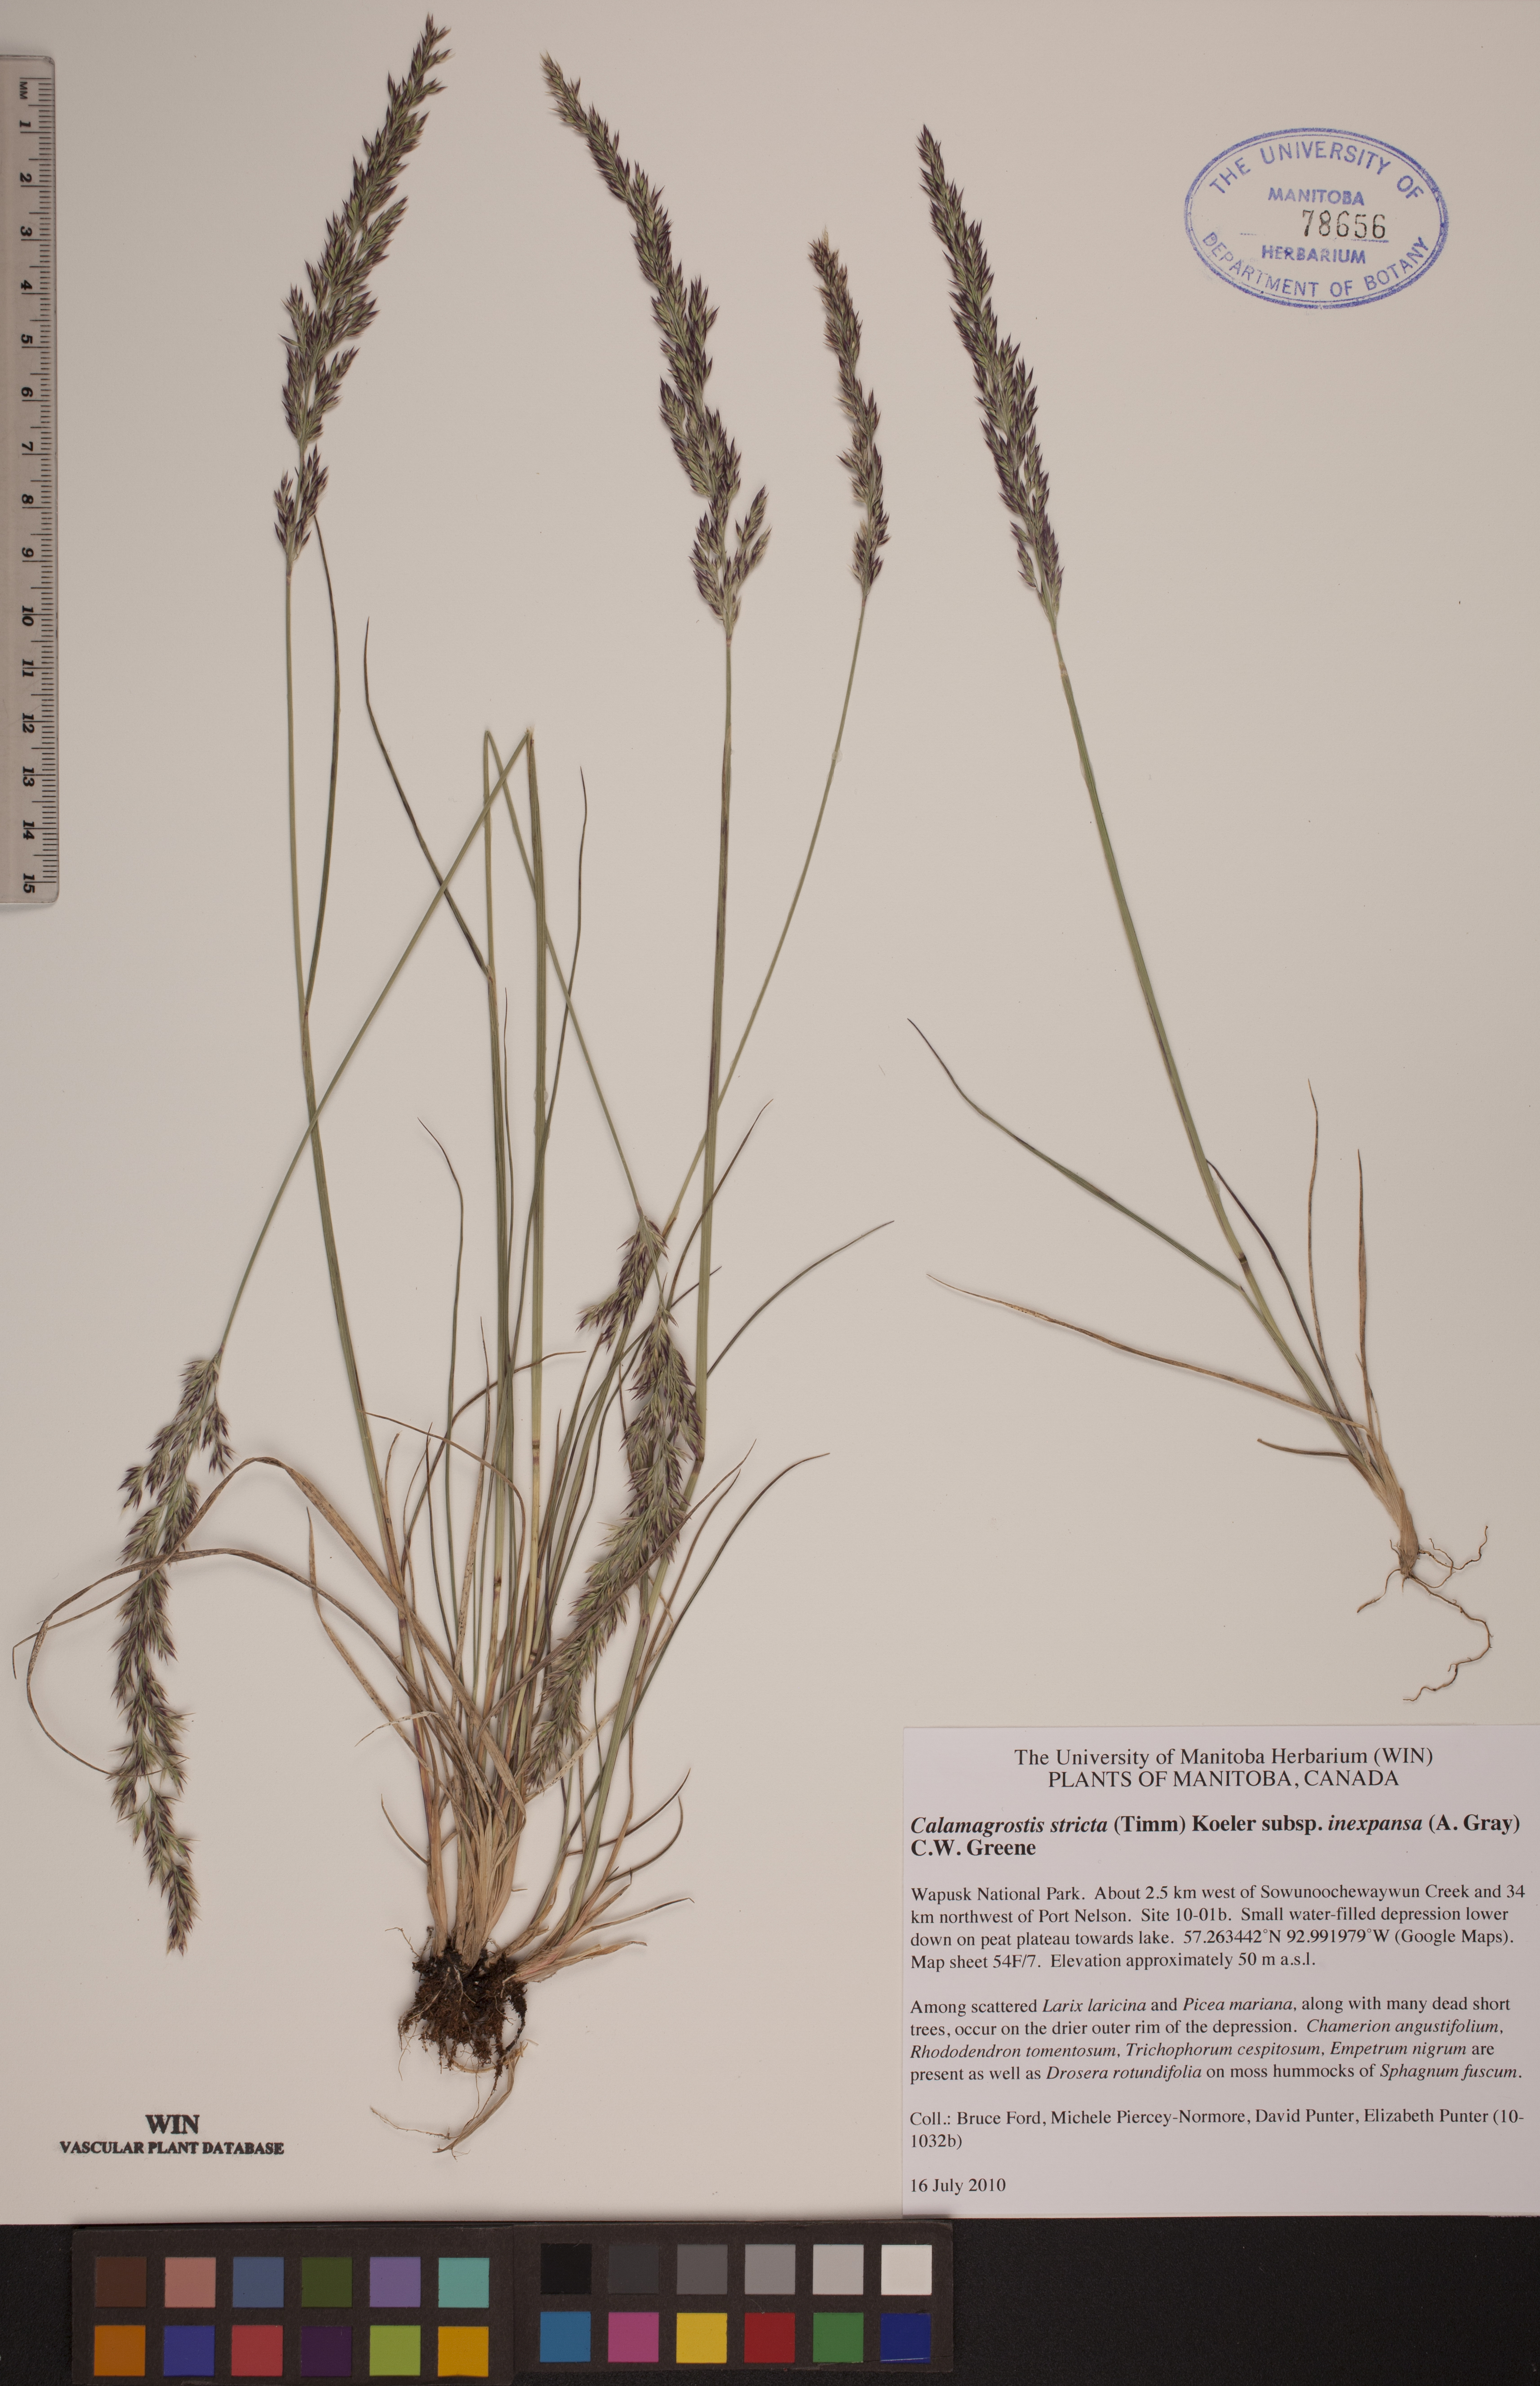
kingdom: Plantae
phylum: Tracheophyta
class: Liliopsida
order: Poales
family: Poaceae
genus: Calamagrostis
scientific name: Calamagrostis lapponica
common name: Lapland reedgrass
